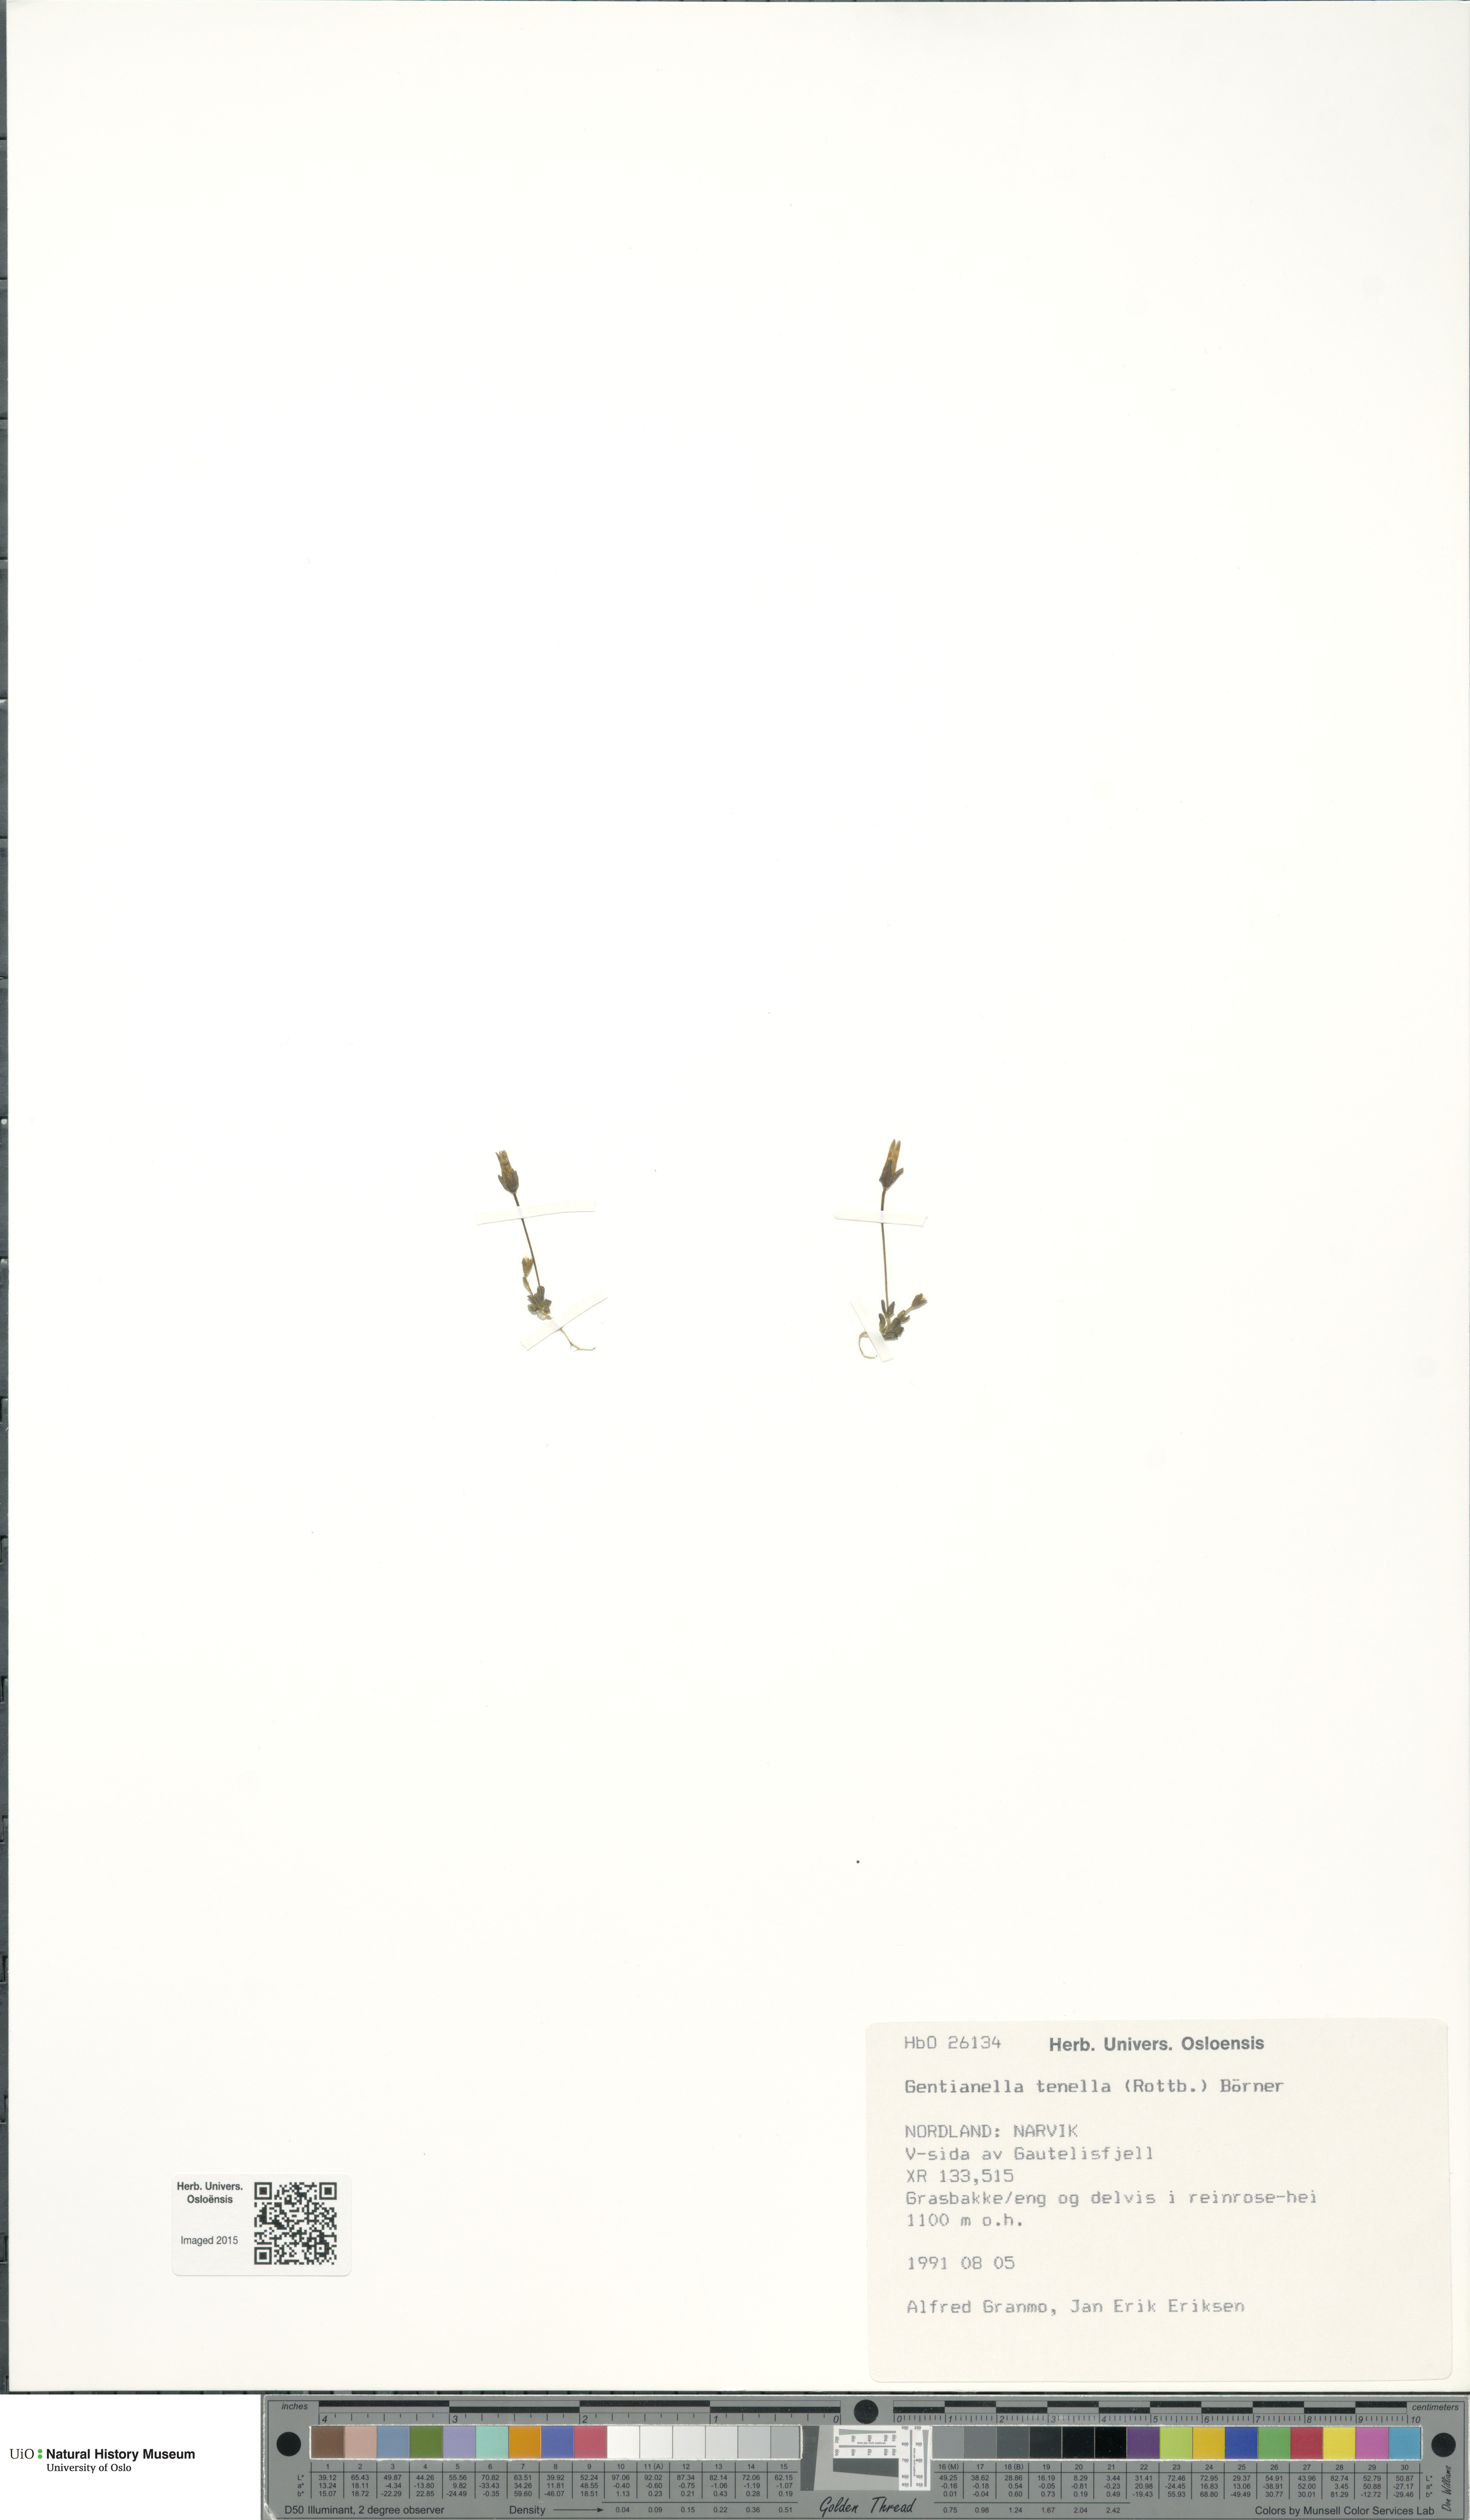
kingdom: Plantae
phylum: Tracheophyta
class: Magnoliopsida
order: Gentianales
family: Gentianaceae
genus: Comastoma
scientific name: Comastoma tenellum
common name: Dane's dwarf gentian
